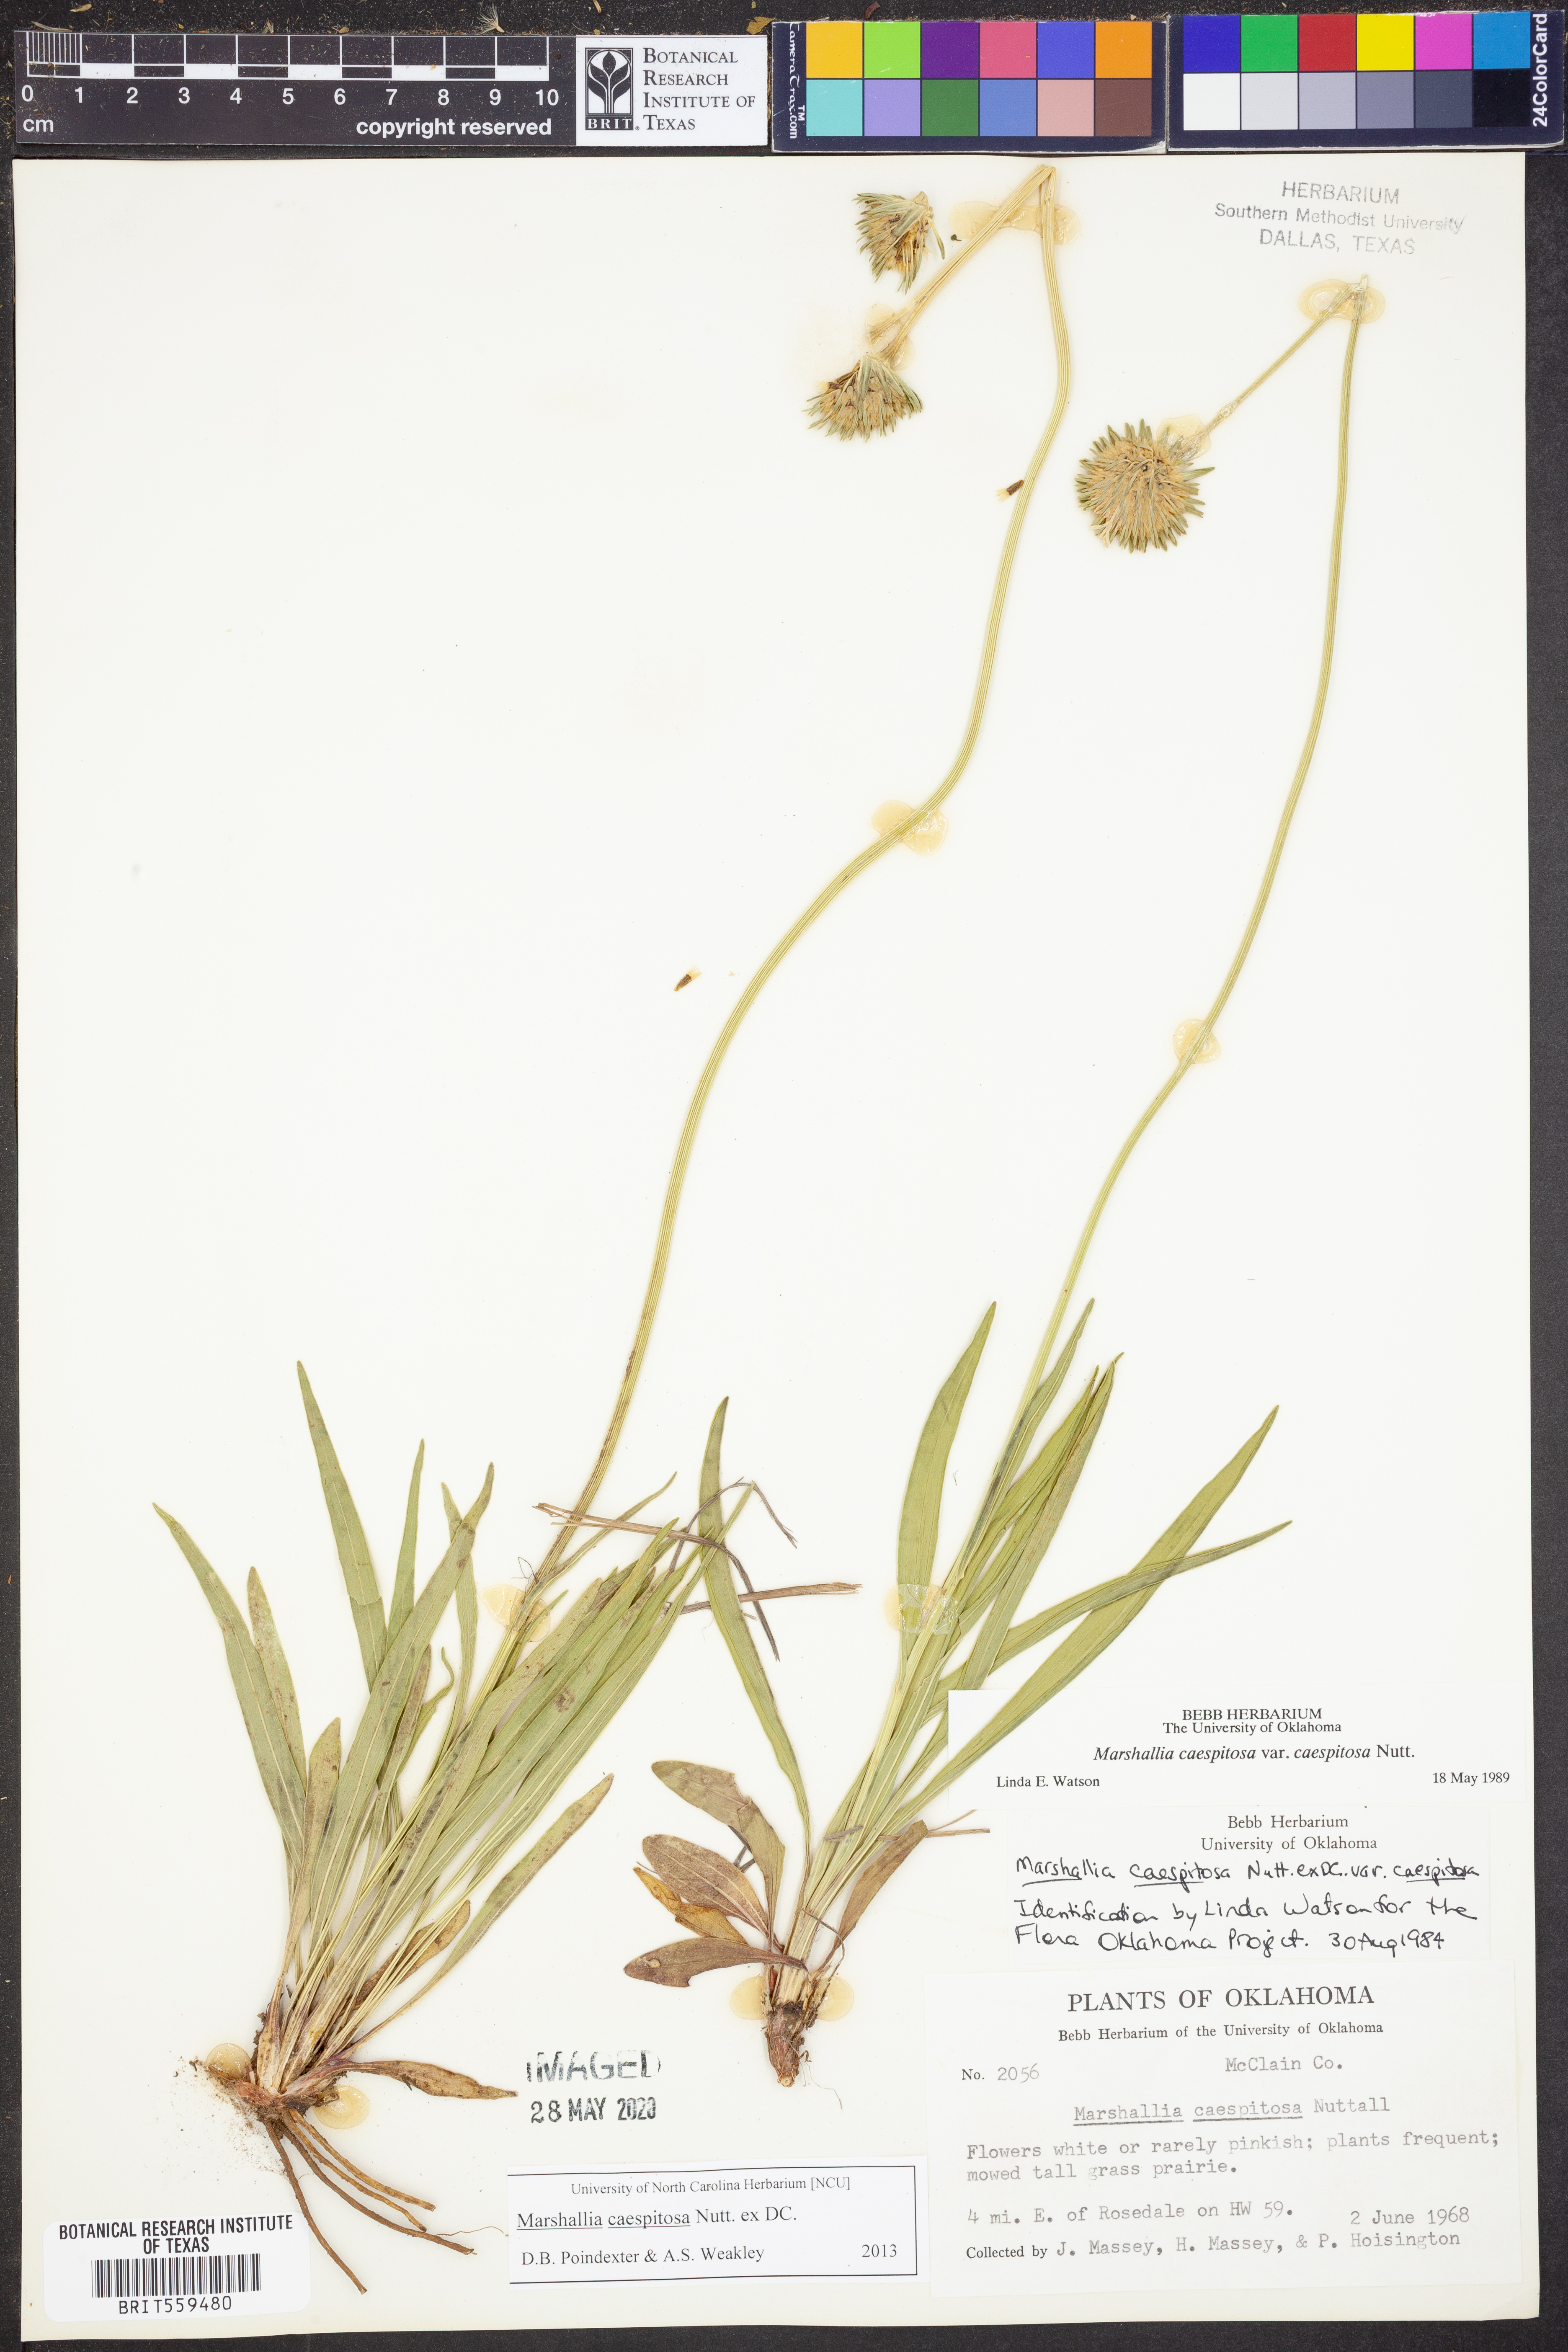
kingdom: Plantae
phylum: Tracheophyta
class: Magnoliopsida
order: Asterales
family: Asteraceae
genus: Marshallia
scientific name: Marshallia caespitosa
